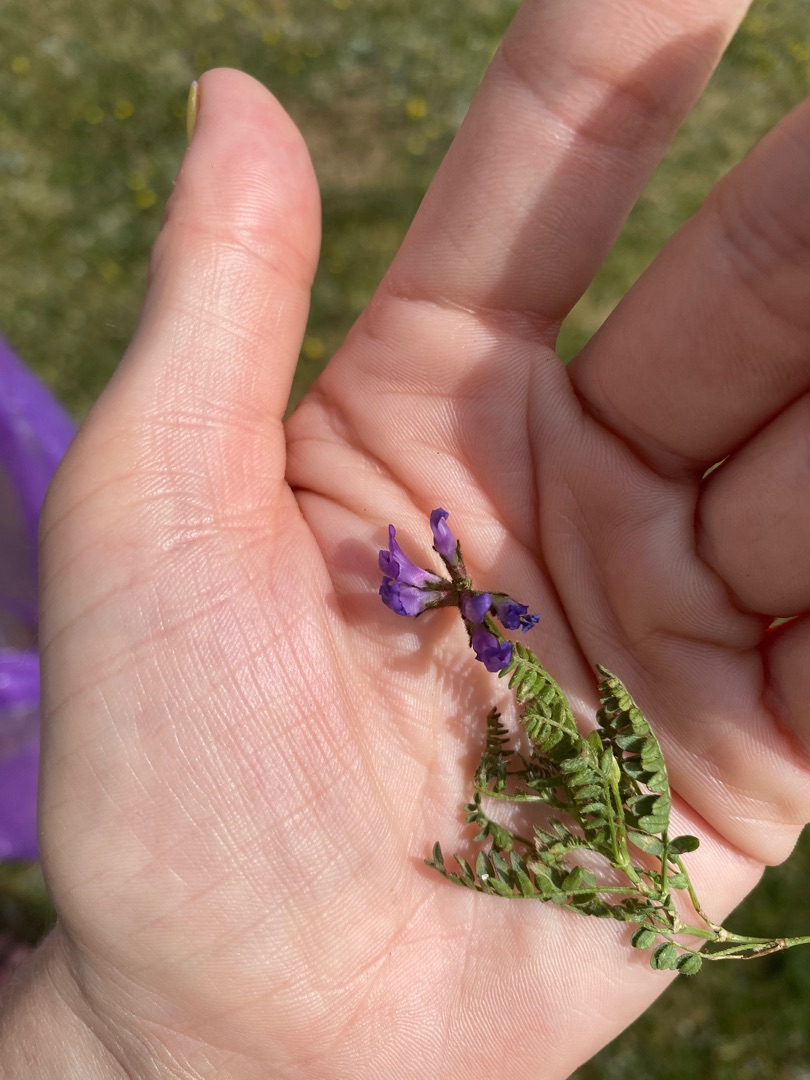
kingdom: Plantae
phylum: Tracheophyta
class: Magnoliopsida
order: Fabales
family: Fabaceae
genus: Astragalus
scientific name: Astragalus danicus
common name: Dansk astragel
